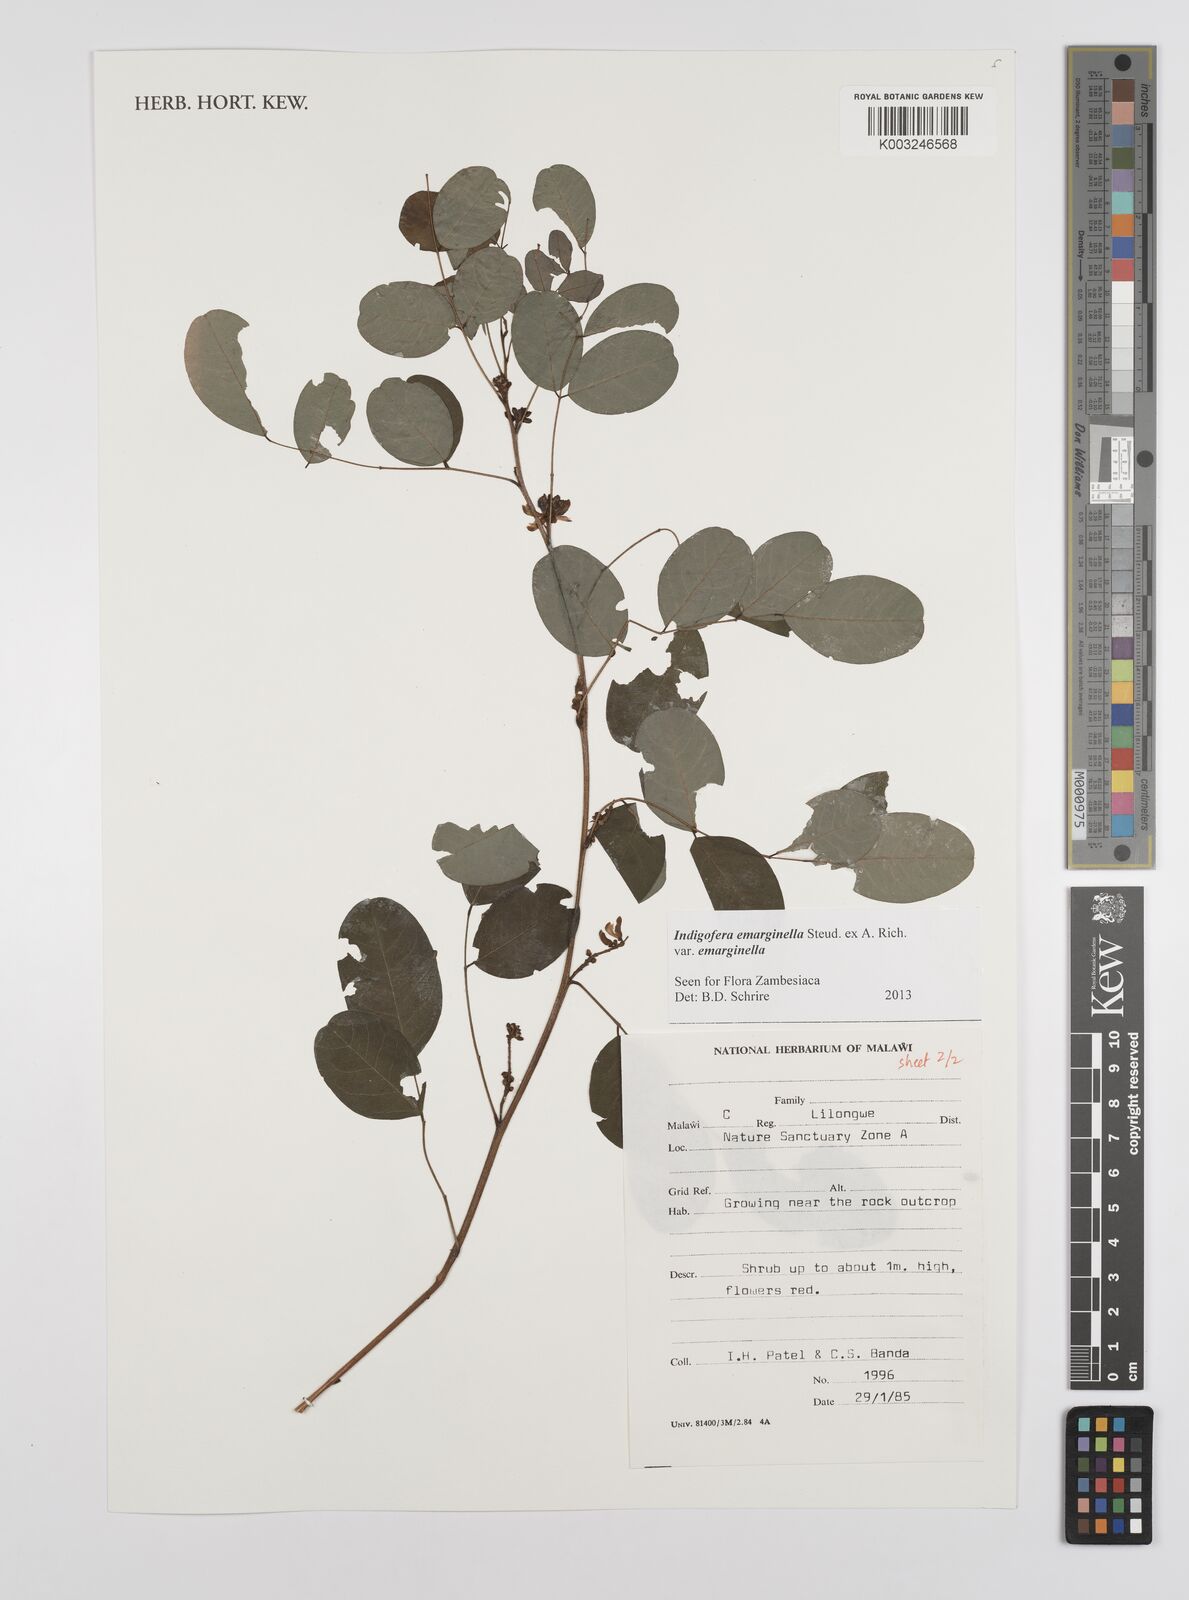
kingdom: Plantae
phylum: Tracheophyta
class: Magnoliopsida
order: Fabales
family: Fabaceae
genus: Indigofera
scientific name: Indigofera emarginella
